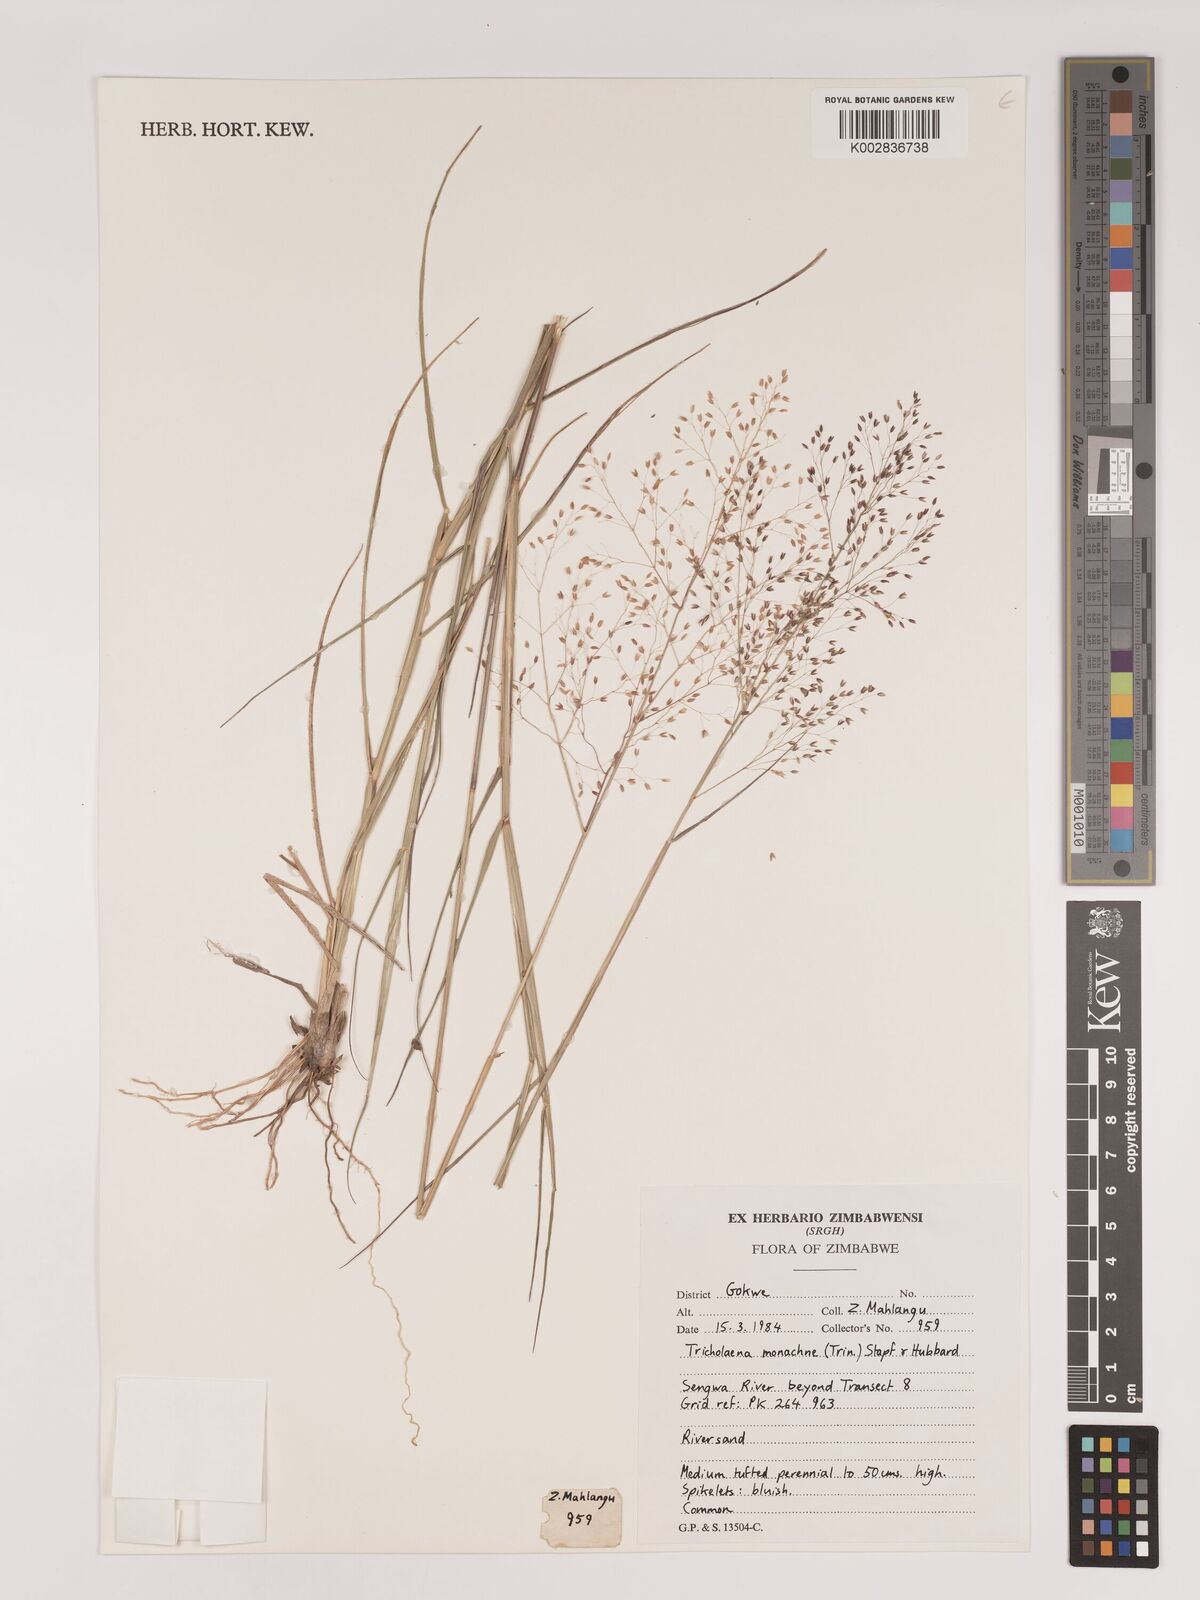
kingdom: Plantae
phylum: Tracheophyta
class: Liliopsida
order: Poales
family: Poaceae
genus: Tricholaena
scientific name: Tricholaena monachne
